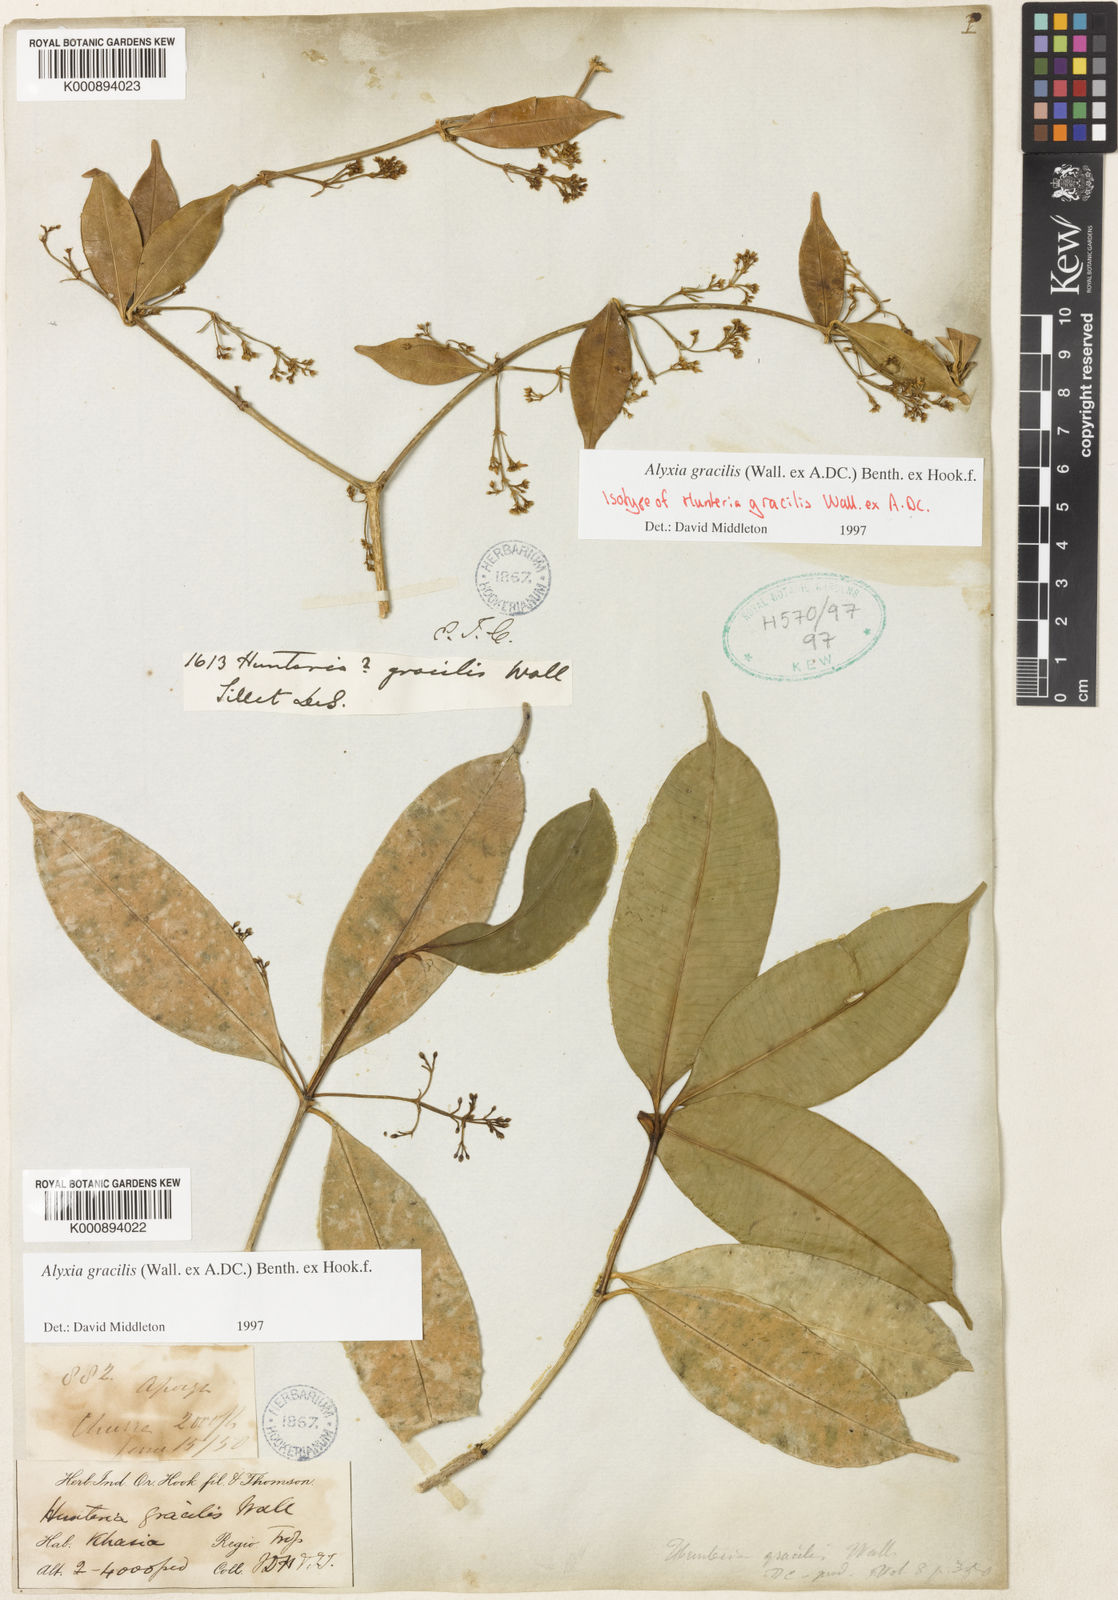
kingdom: Plantae
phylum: Tracheophyta
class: Magnoliopsida
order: Gentianales
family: Apocynaceae
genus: Alyxia
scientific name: Alyxia gracilis
